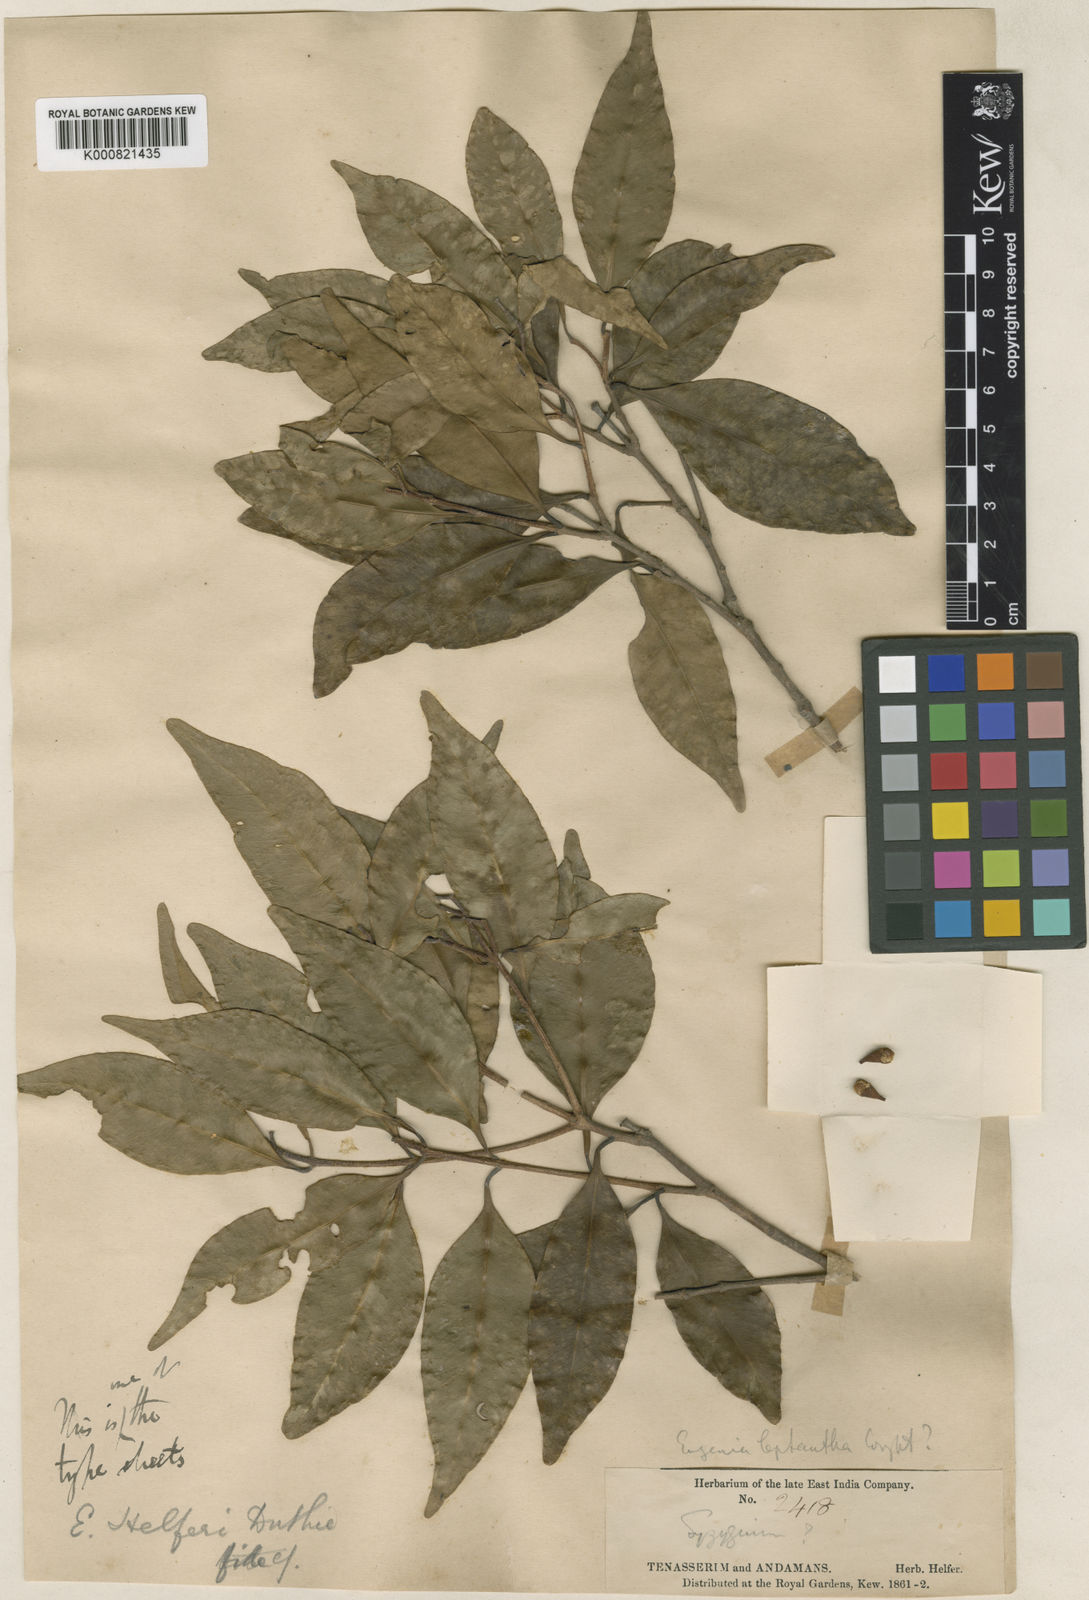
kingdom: Plantae
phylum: Tracheophyta
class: Magnoliopsida
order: Myrtales
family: Myrtaceae
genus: Syzygium
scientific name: Syzygium ramosissimum
